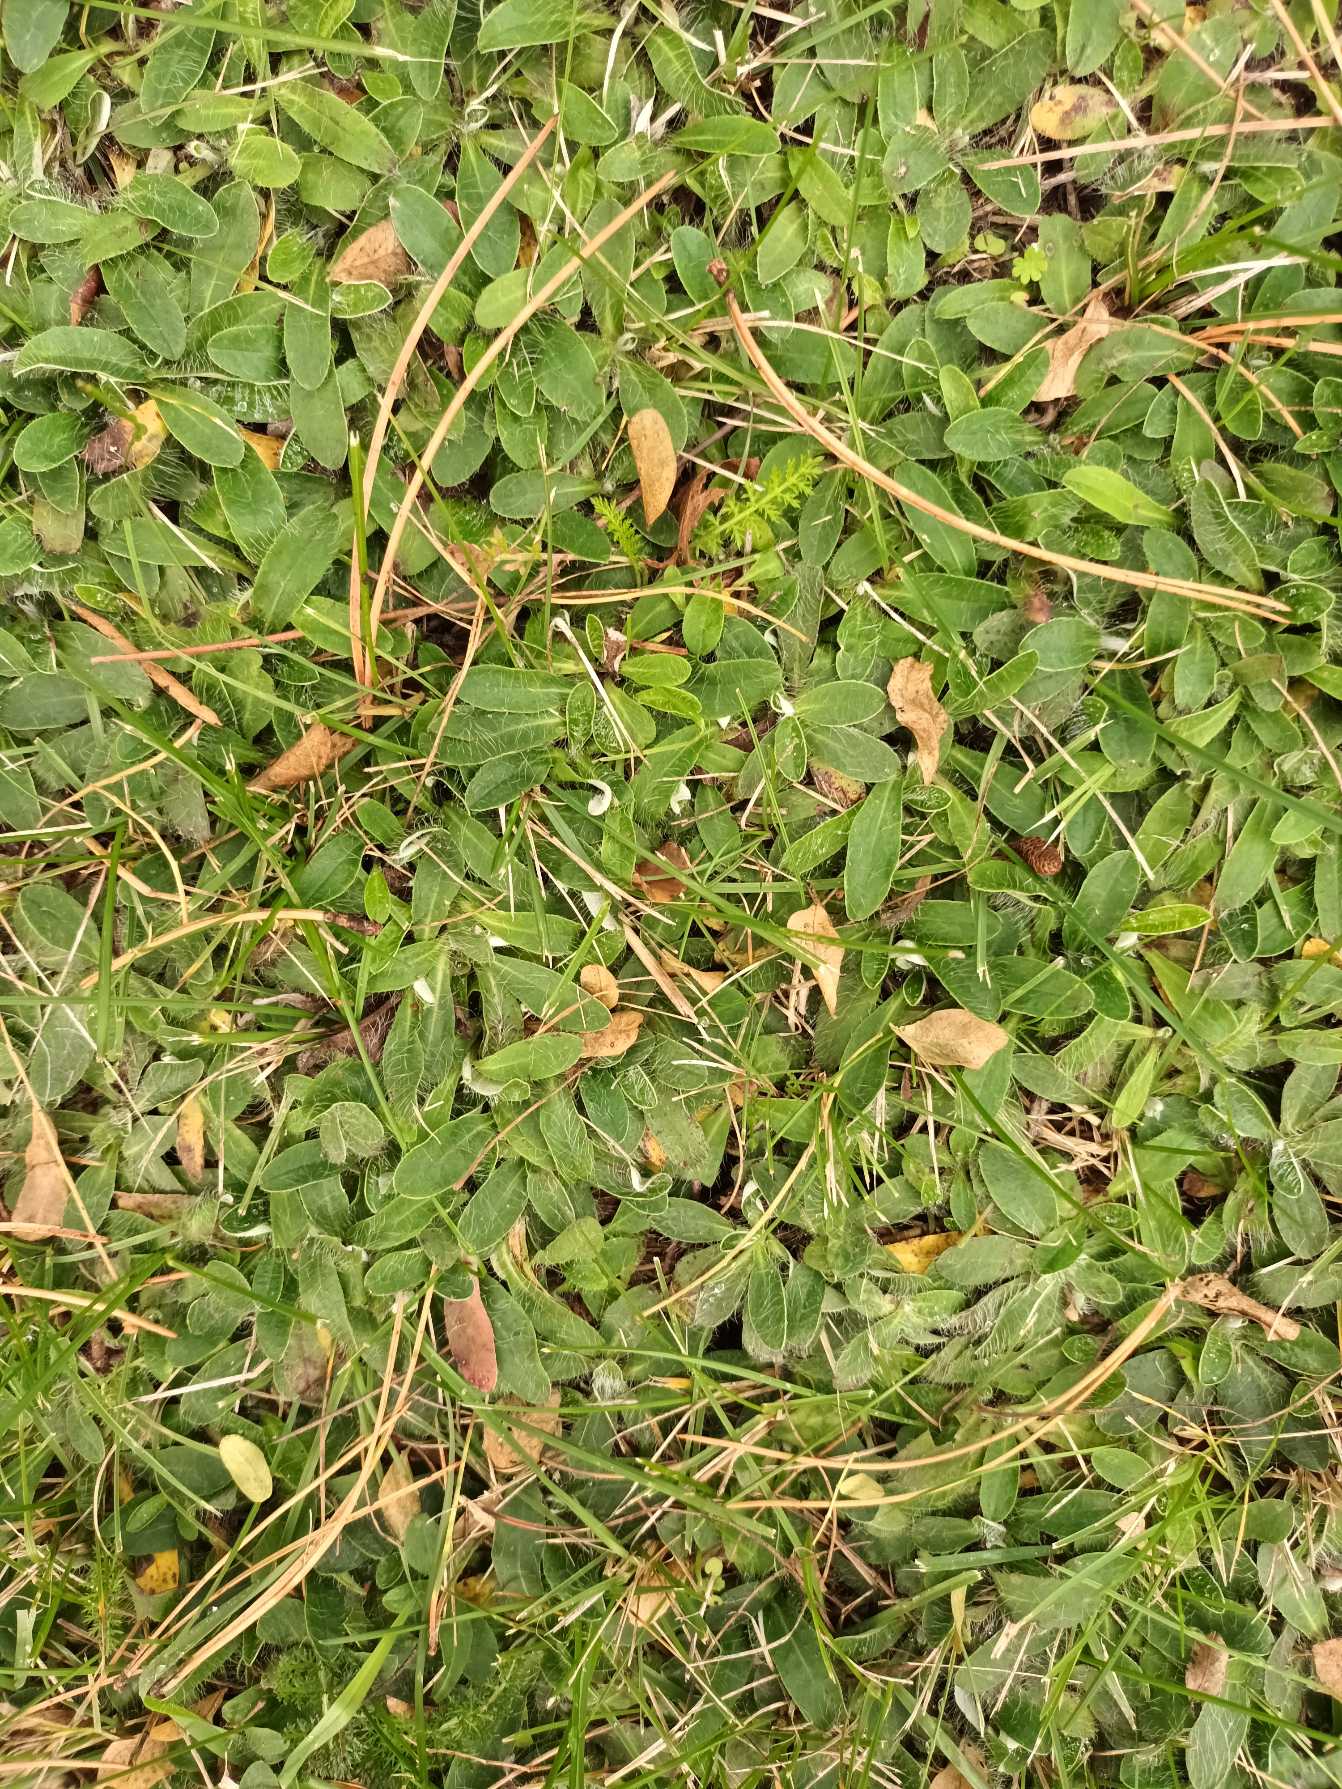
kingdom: Plantae
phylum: Tracheophyta
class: Magnoliopsida
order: Asterales
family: Asteraceae
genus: Pilosella
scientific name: Pilosella officinarum
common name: Håret høgeurt
